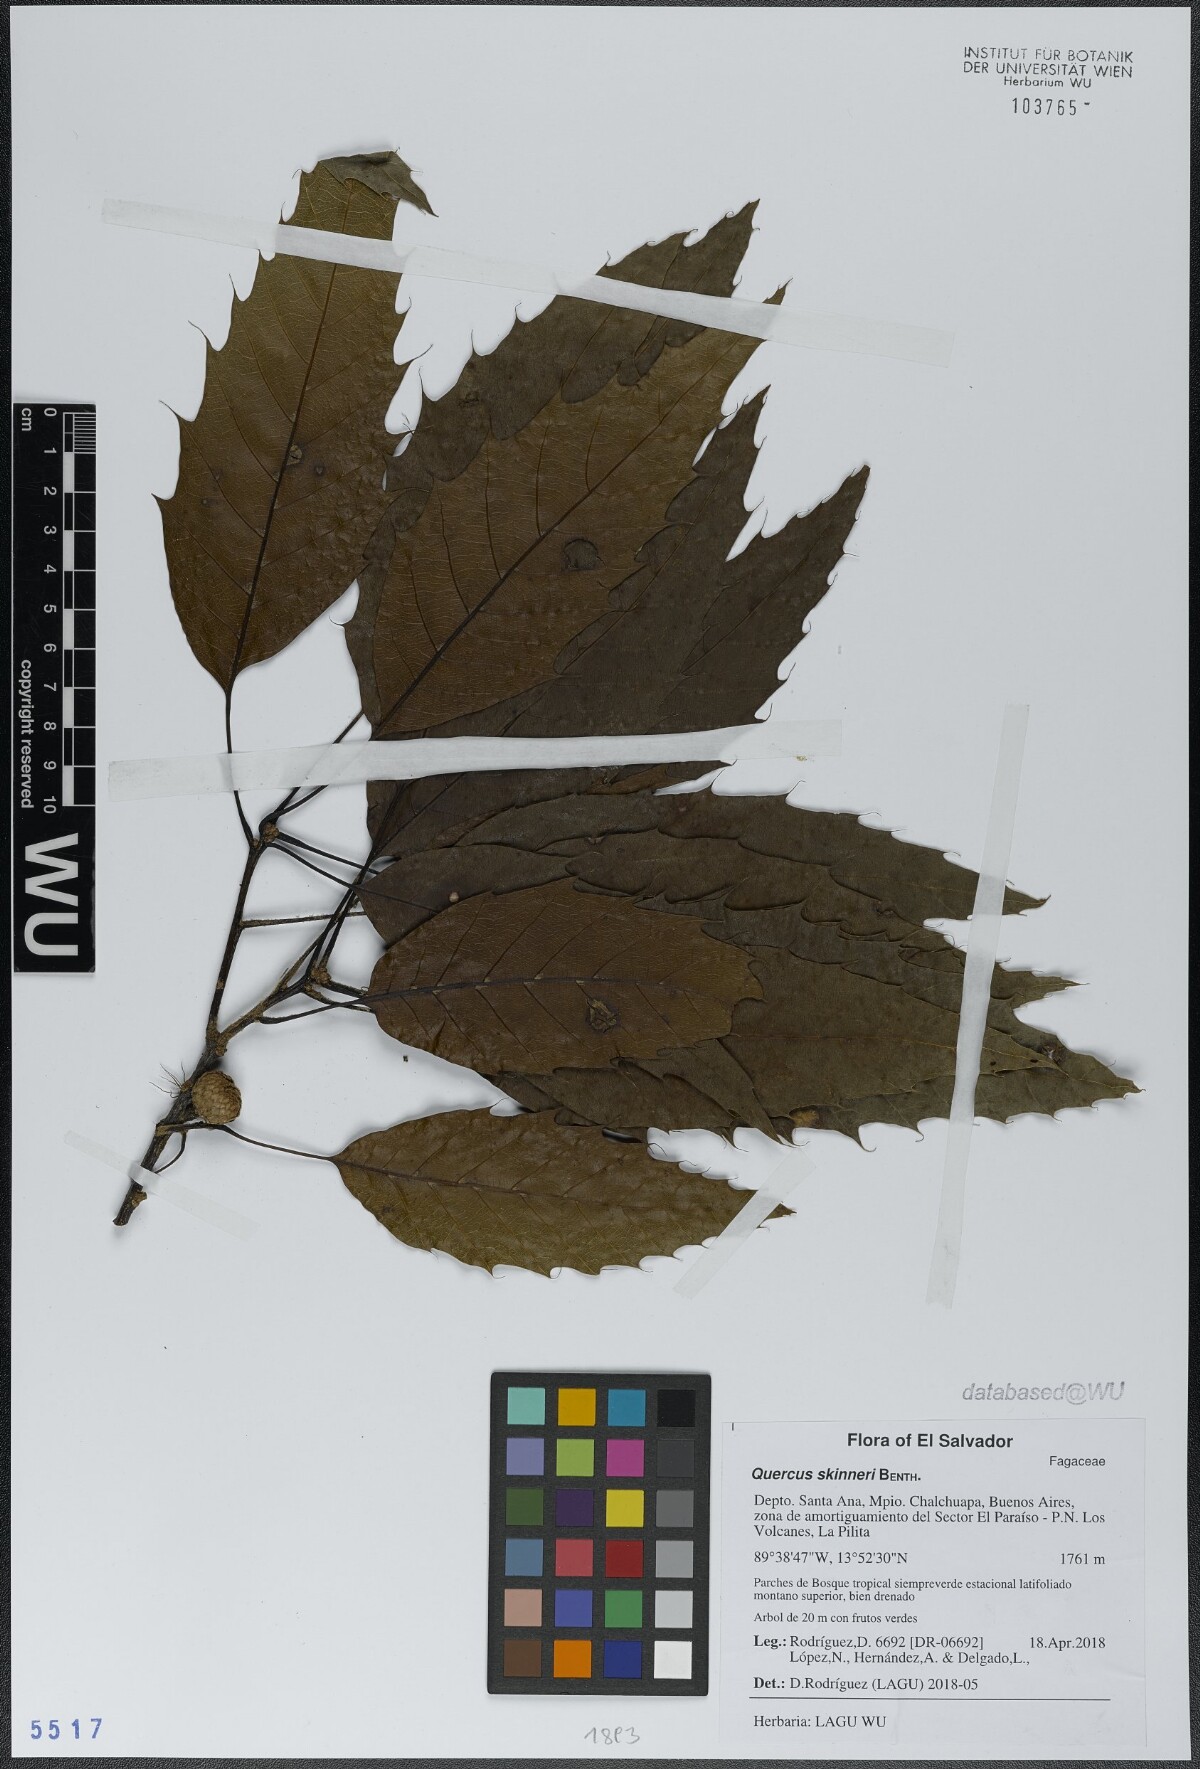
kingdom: Plantae
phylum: Tracheophyta
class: Magnoliopsida
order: Fagales
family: Fagaceae
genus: Quercus
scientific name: Quercus skinneri
